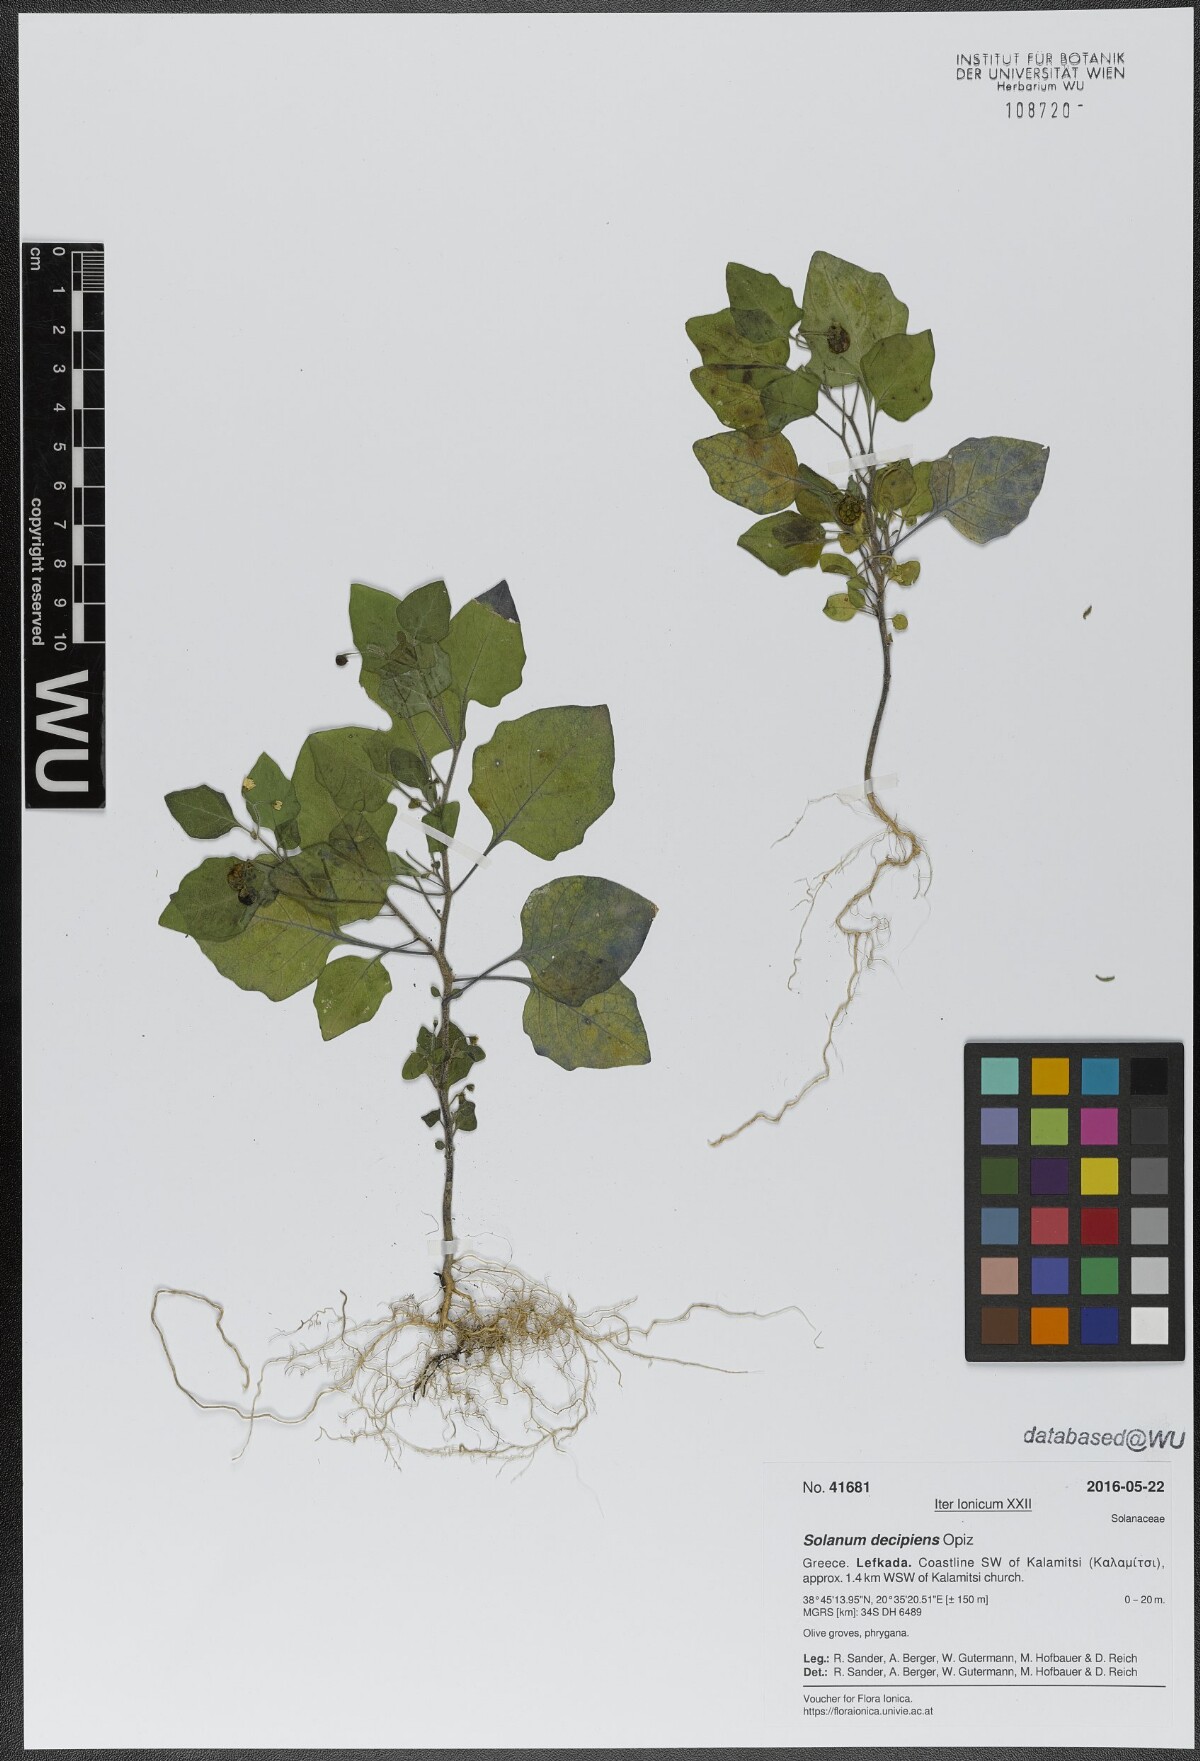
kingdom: Plantae
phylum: Tracheophyta
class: Magnoliopsida
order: Solanales
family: Solanaceae
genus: Solanum
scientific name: Solanum decipiens
